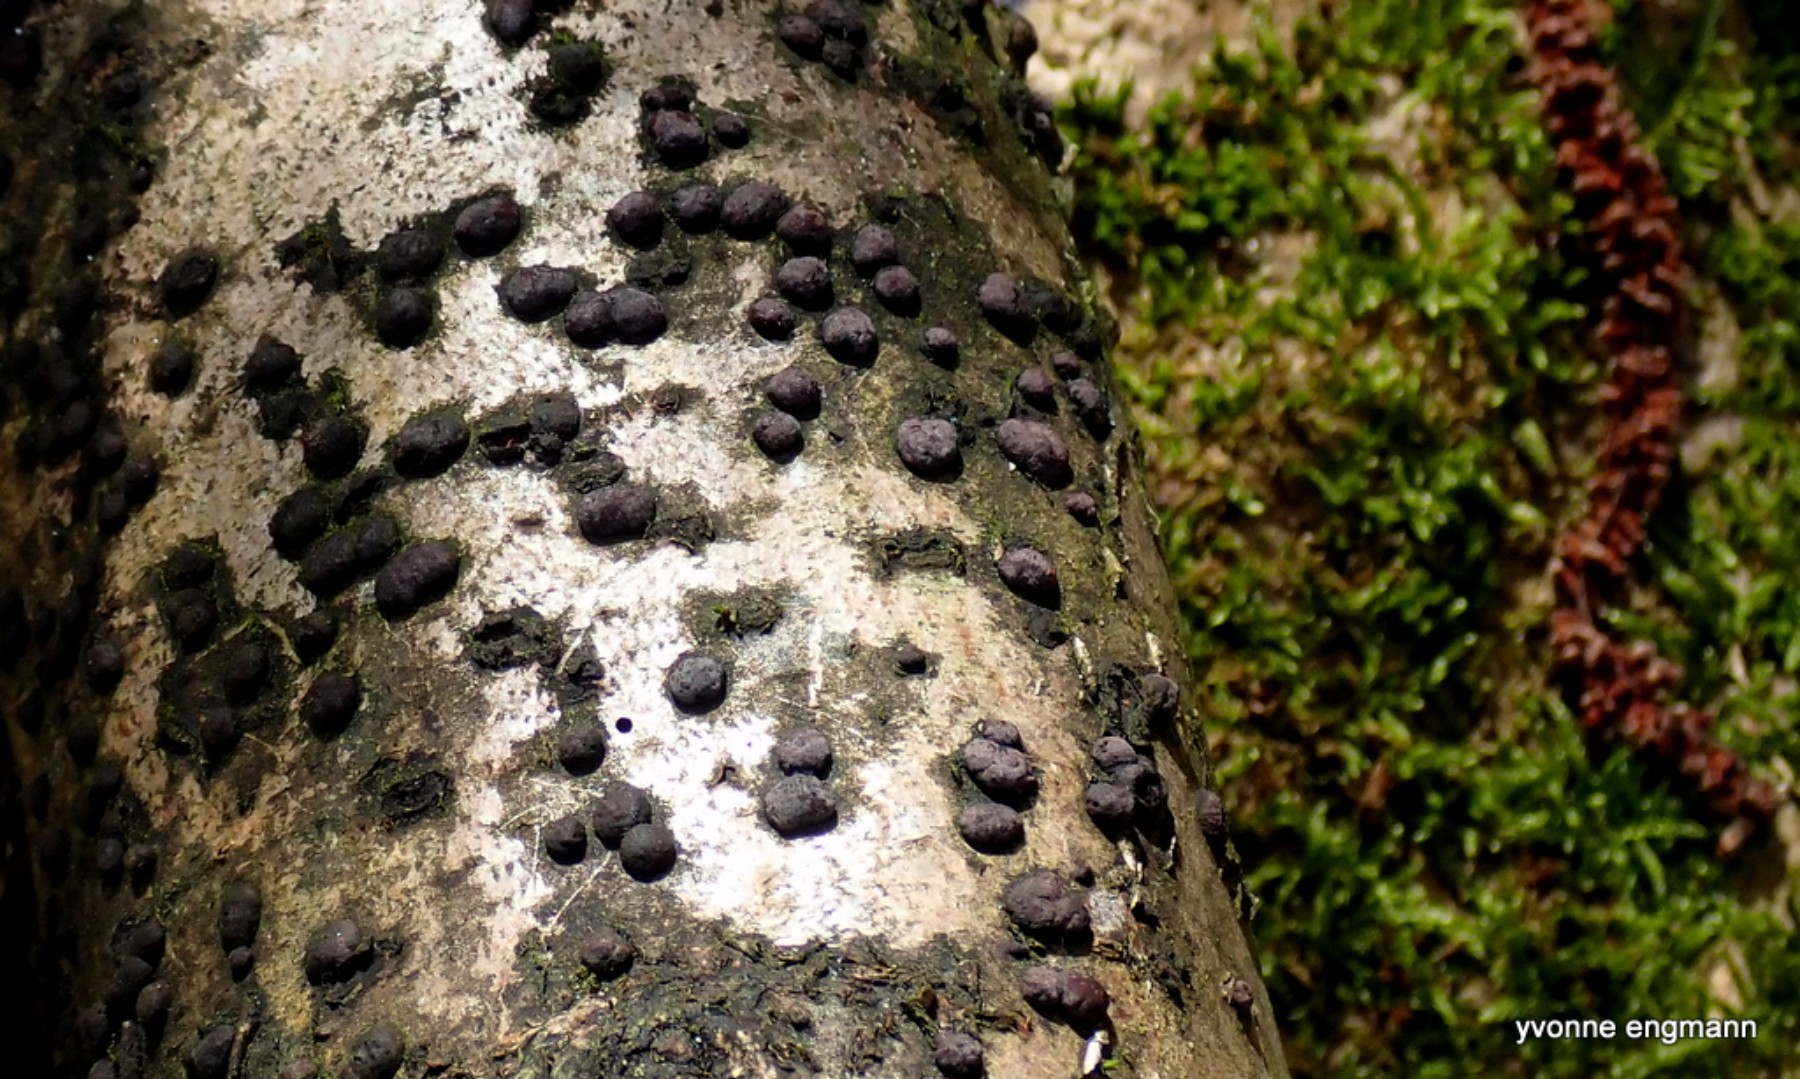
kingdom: Fungi
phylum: Ascomycota
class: Sordariomycetes
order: Xylariales
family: Hypoxylaceae
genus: Hypoxylon
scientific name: Hypoxylon fuscum
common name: kegleformet kulbær
